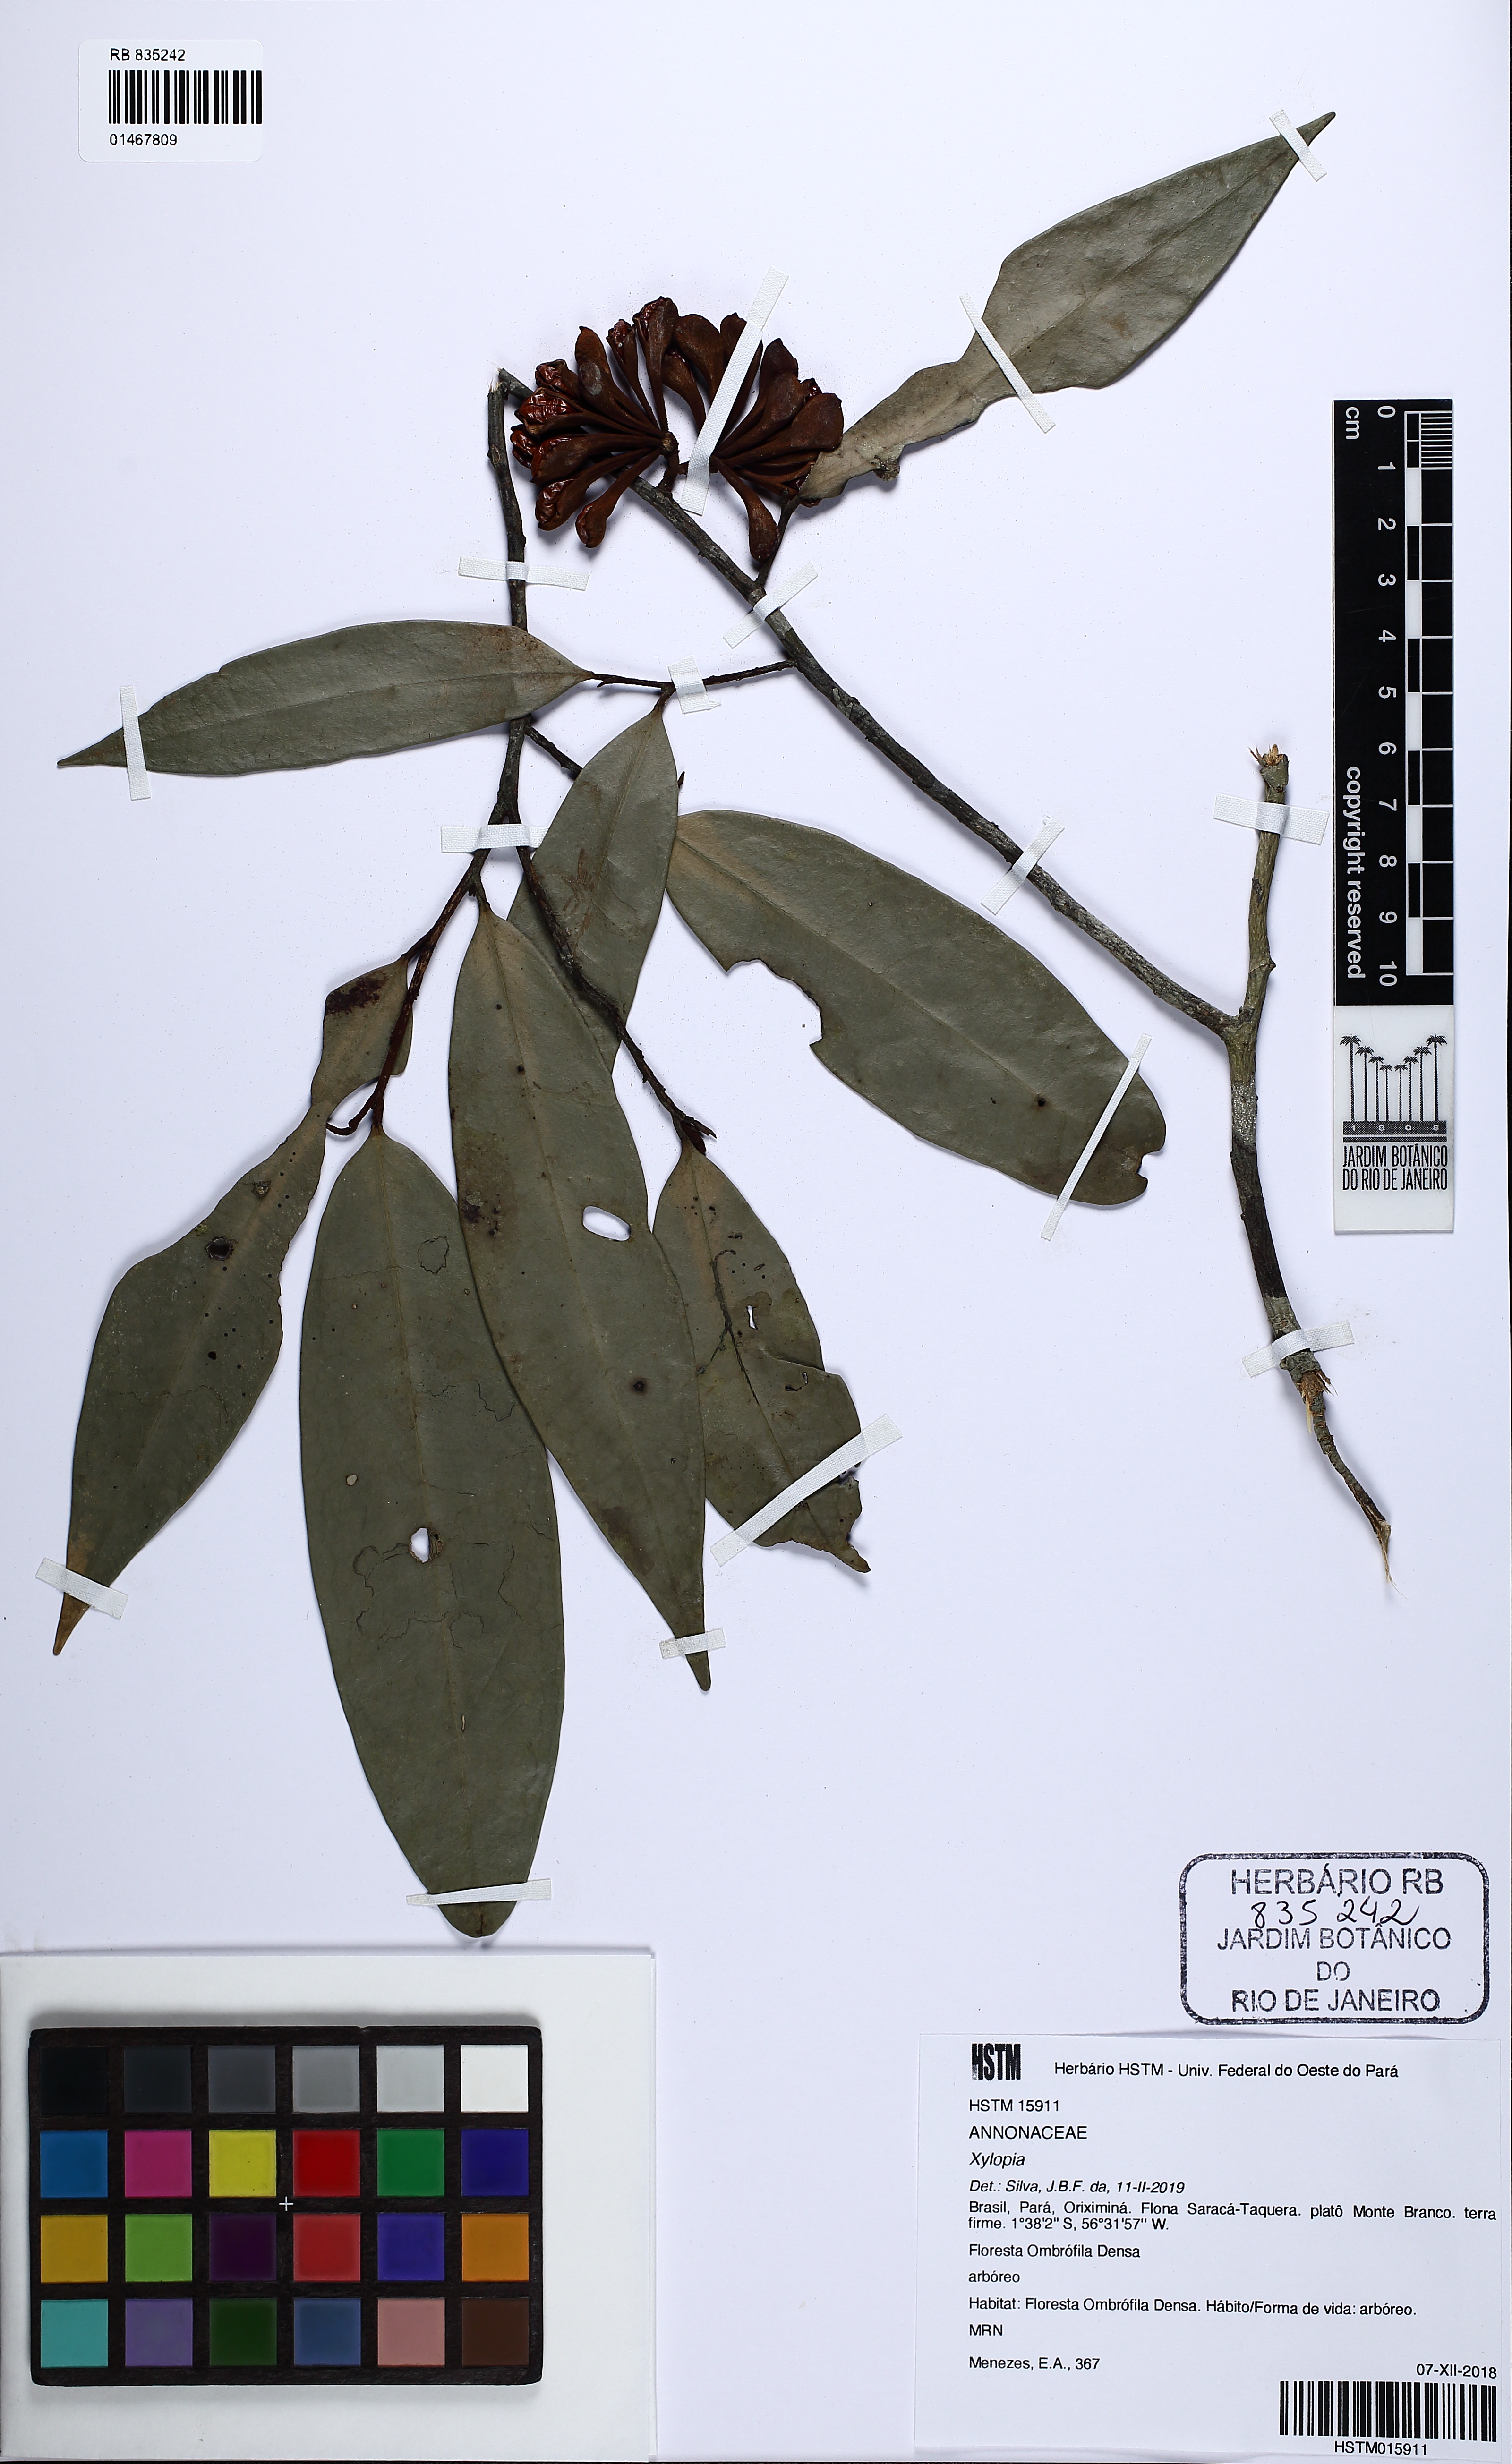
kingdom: Plantae
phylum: Tracheophyta
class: Magnoliopsida
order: Magnoliales
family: Annonaceae
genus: Xylopia
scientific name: Xylopia
